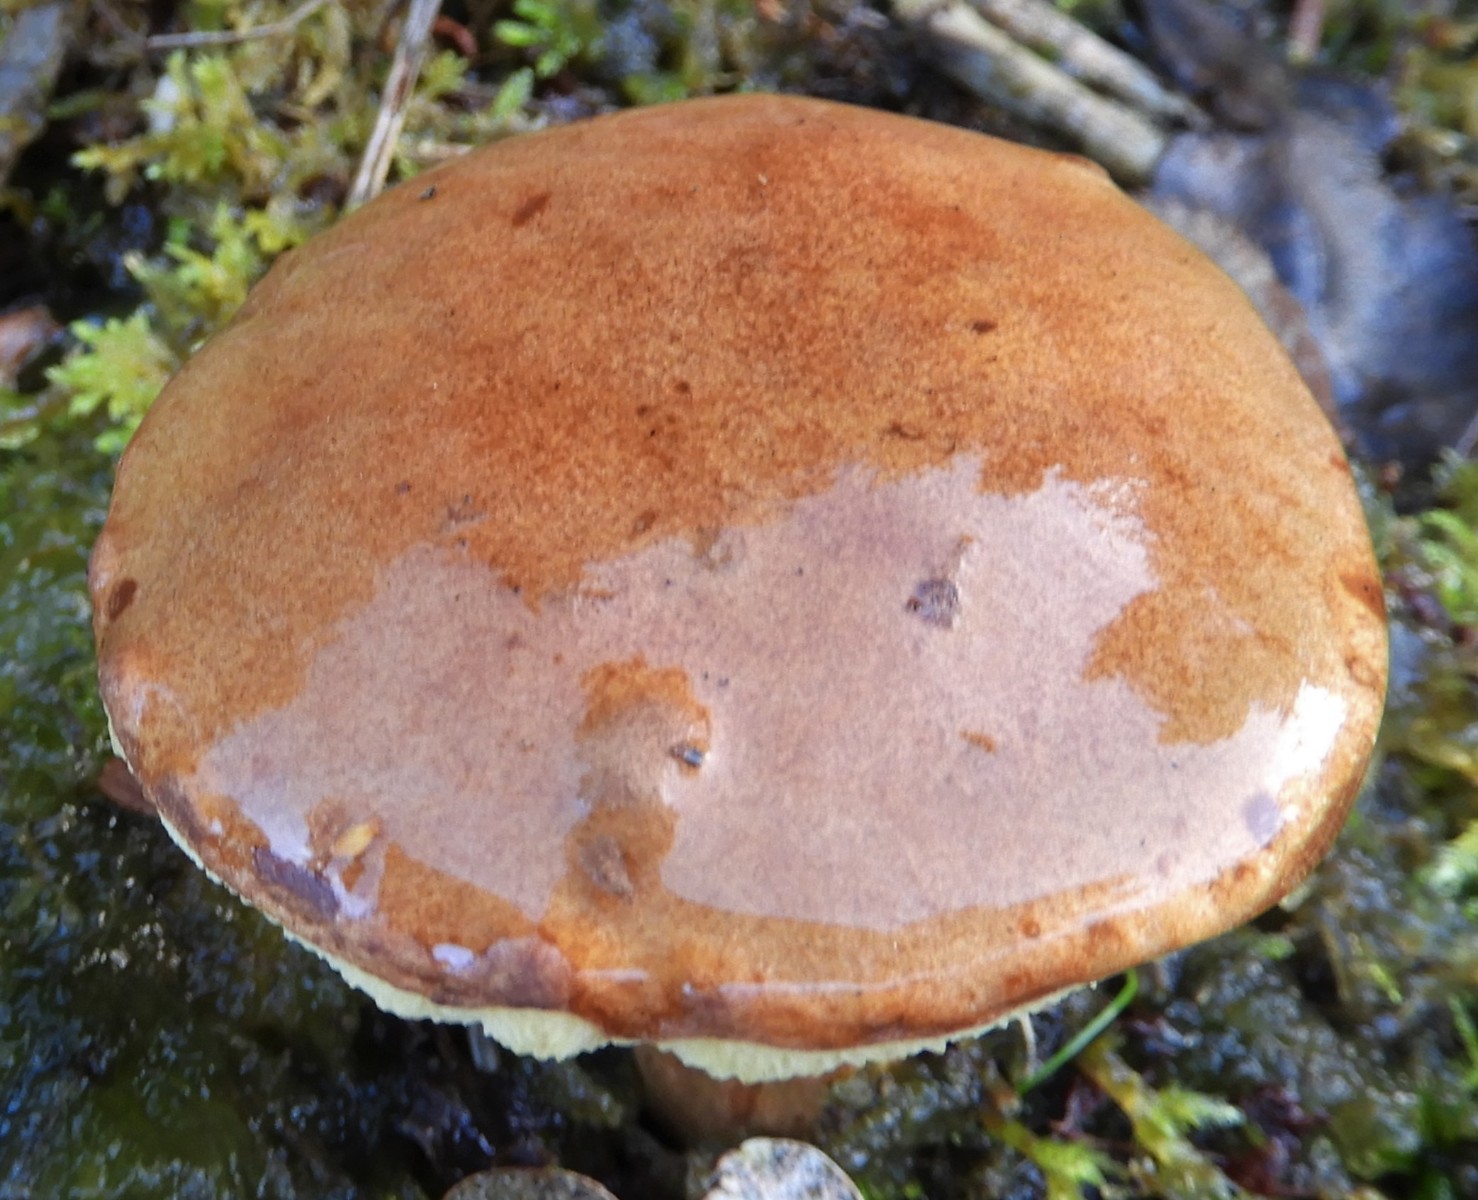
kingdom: Fungi
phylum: Basidiomycota
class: Agaricomycetes
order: Boletales
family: Boletaceae
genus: Imleria
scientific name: Imleria badia
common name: brunstokket rørhat
